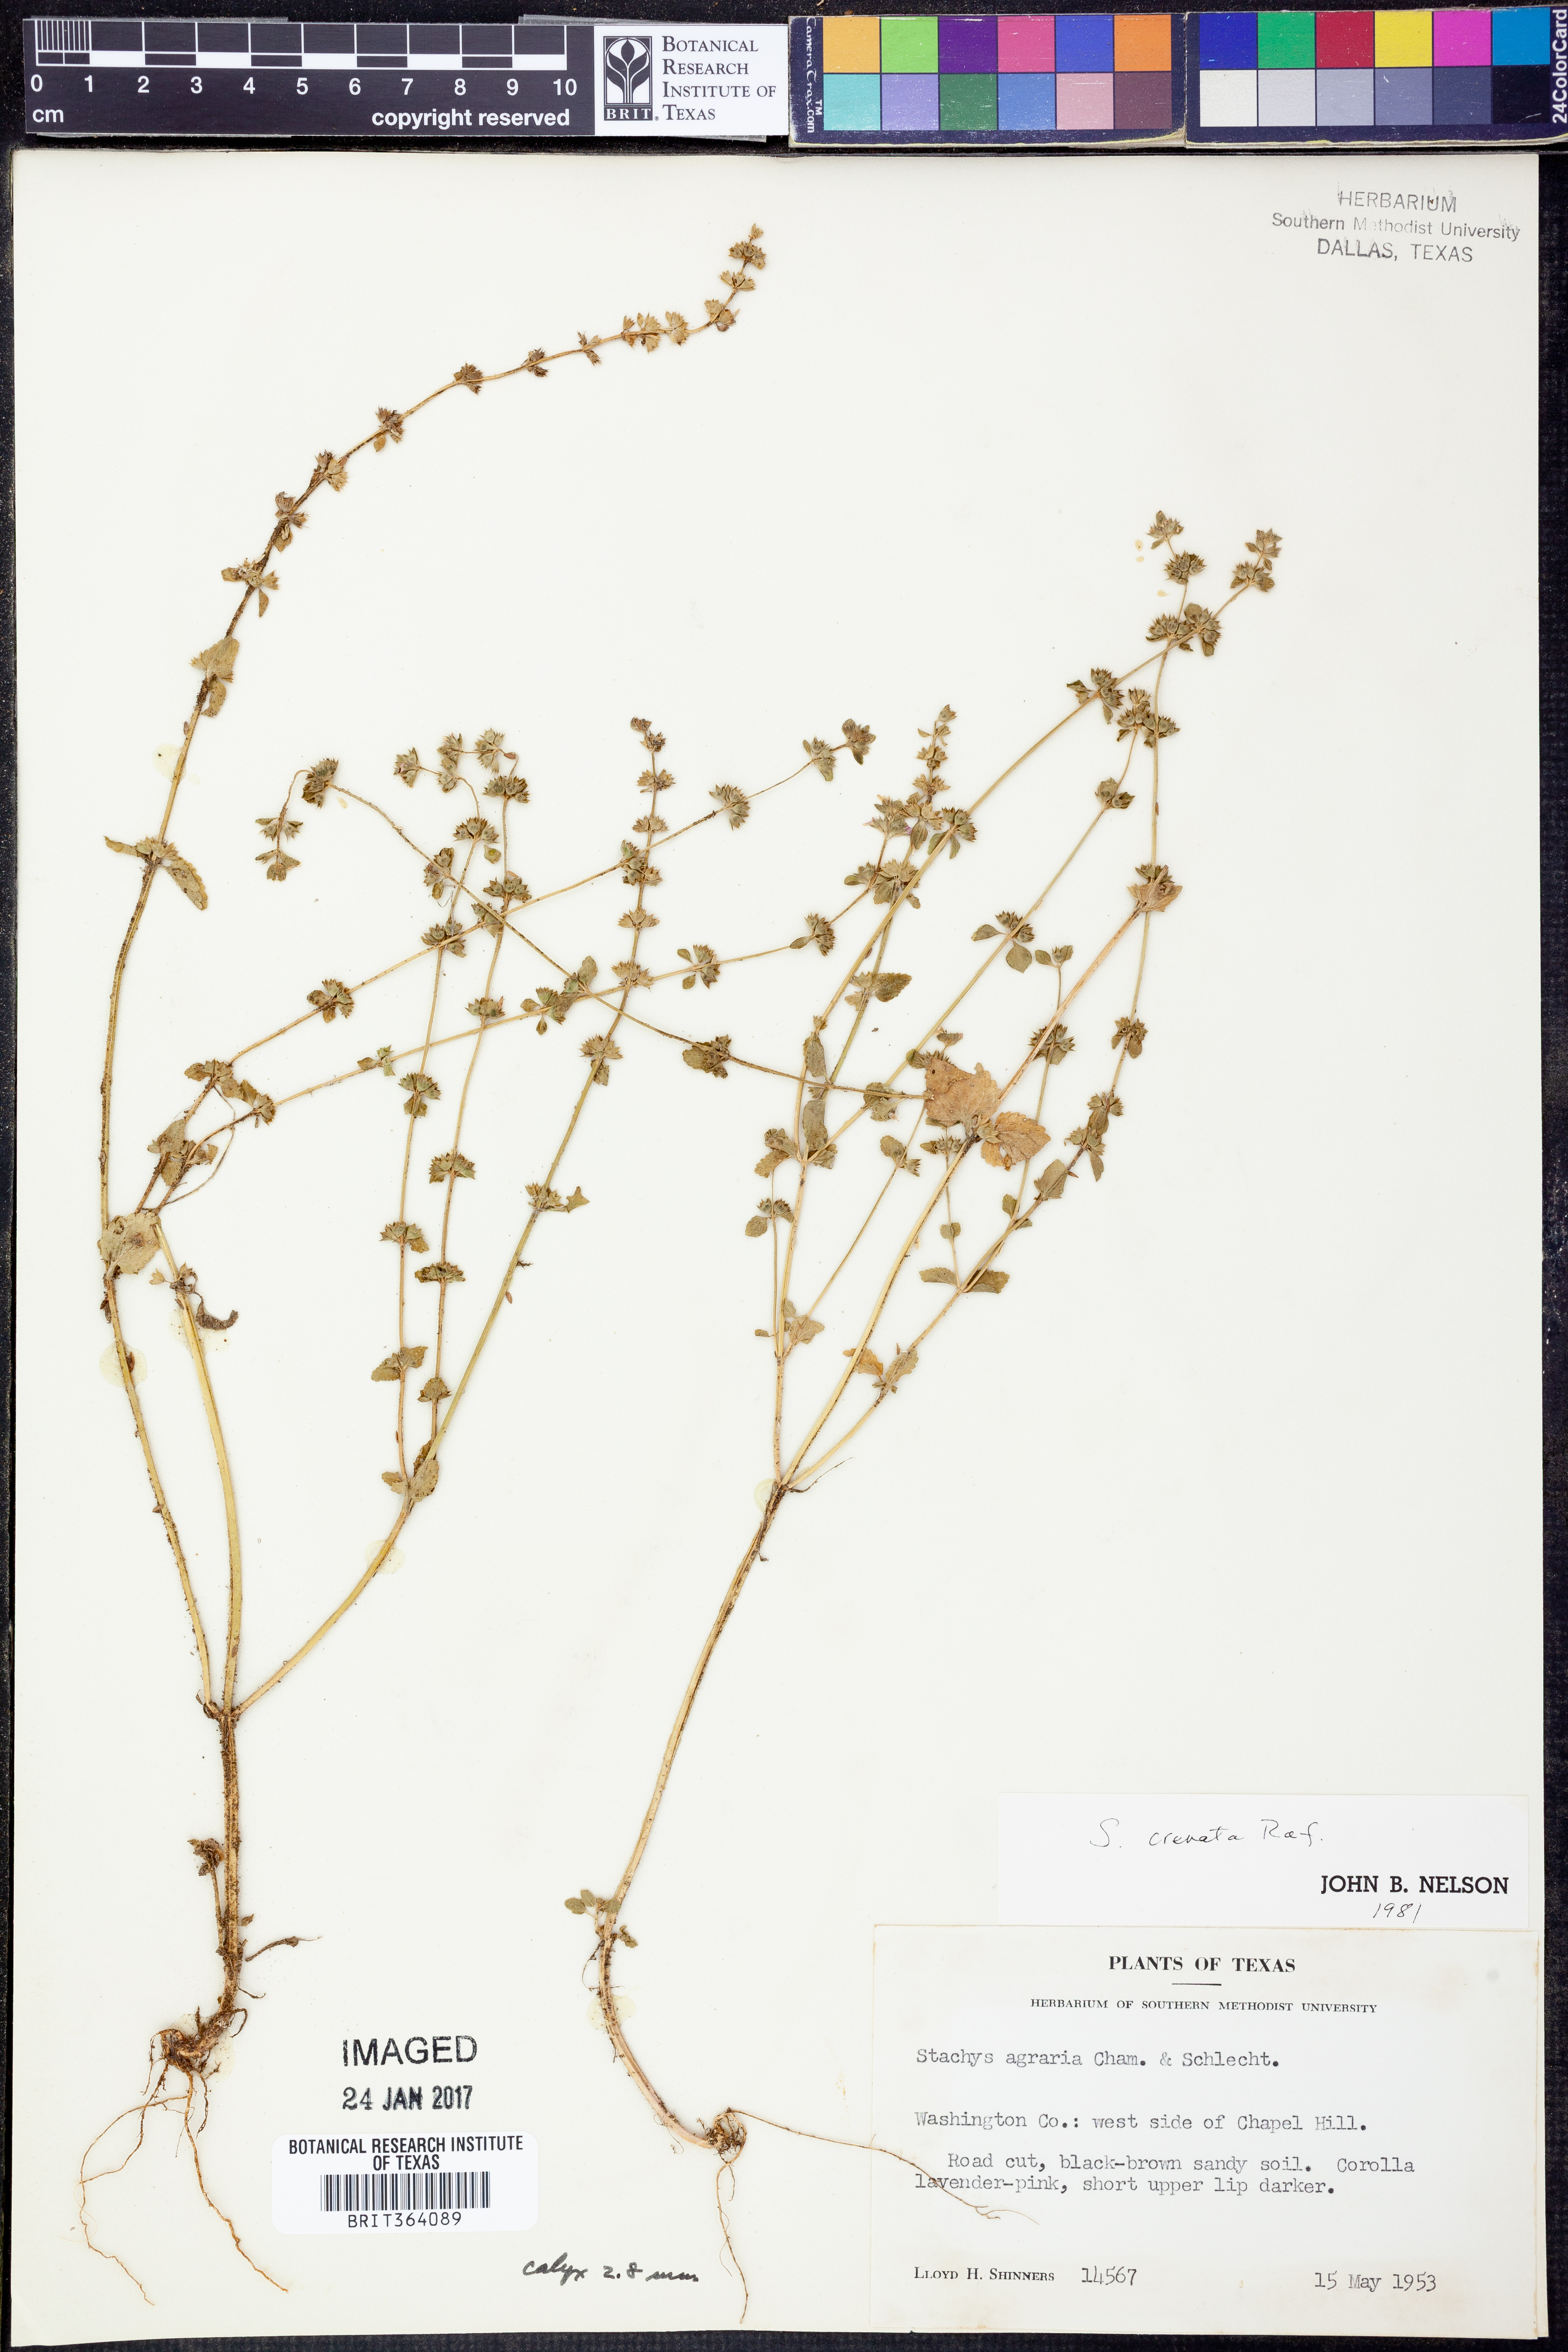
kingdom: Plantae
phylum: Tracheophyta
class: Magnoliopsida
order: Lamiales
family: Lamiaceae
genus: Stachys
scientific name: Stachys agraria
